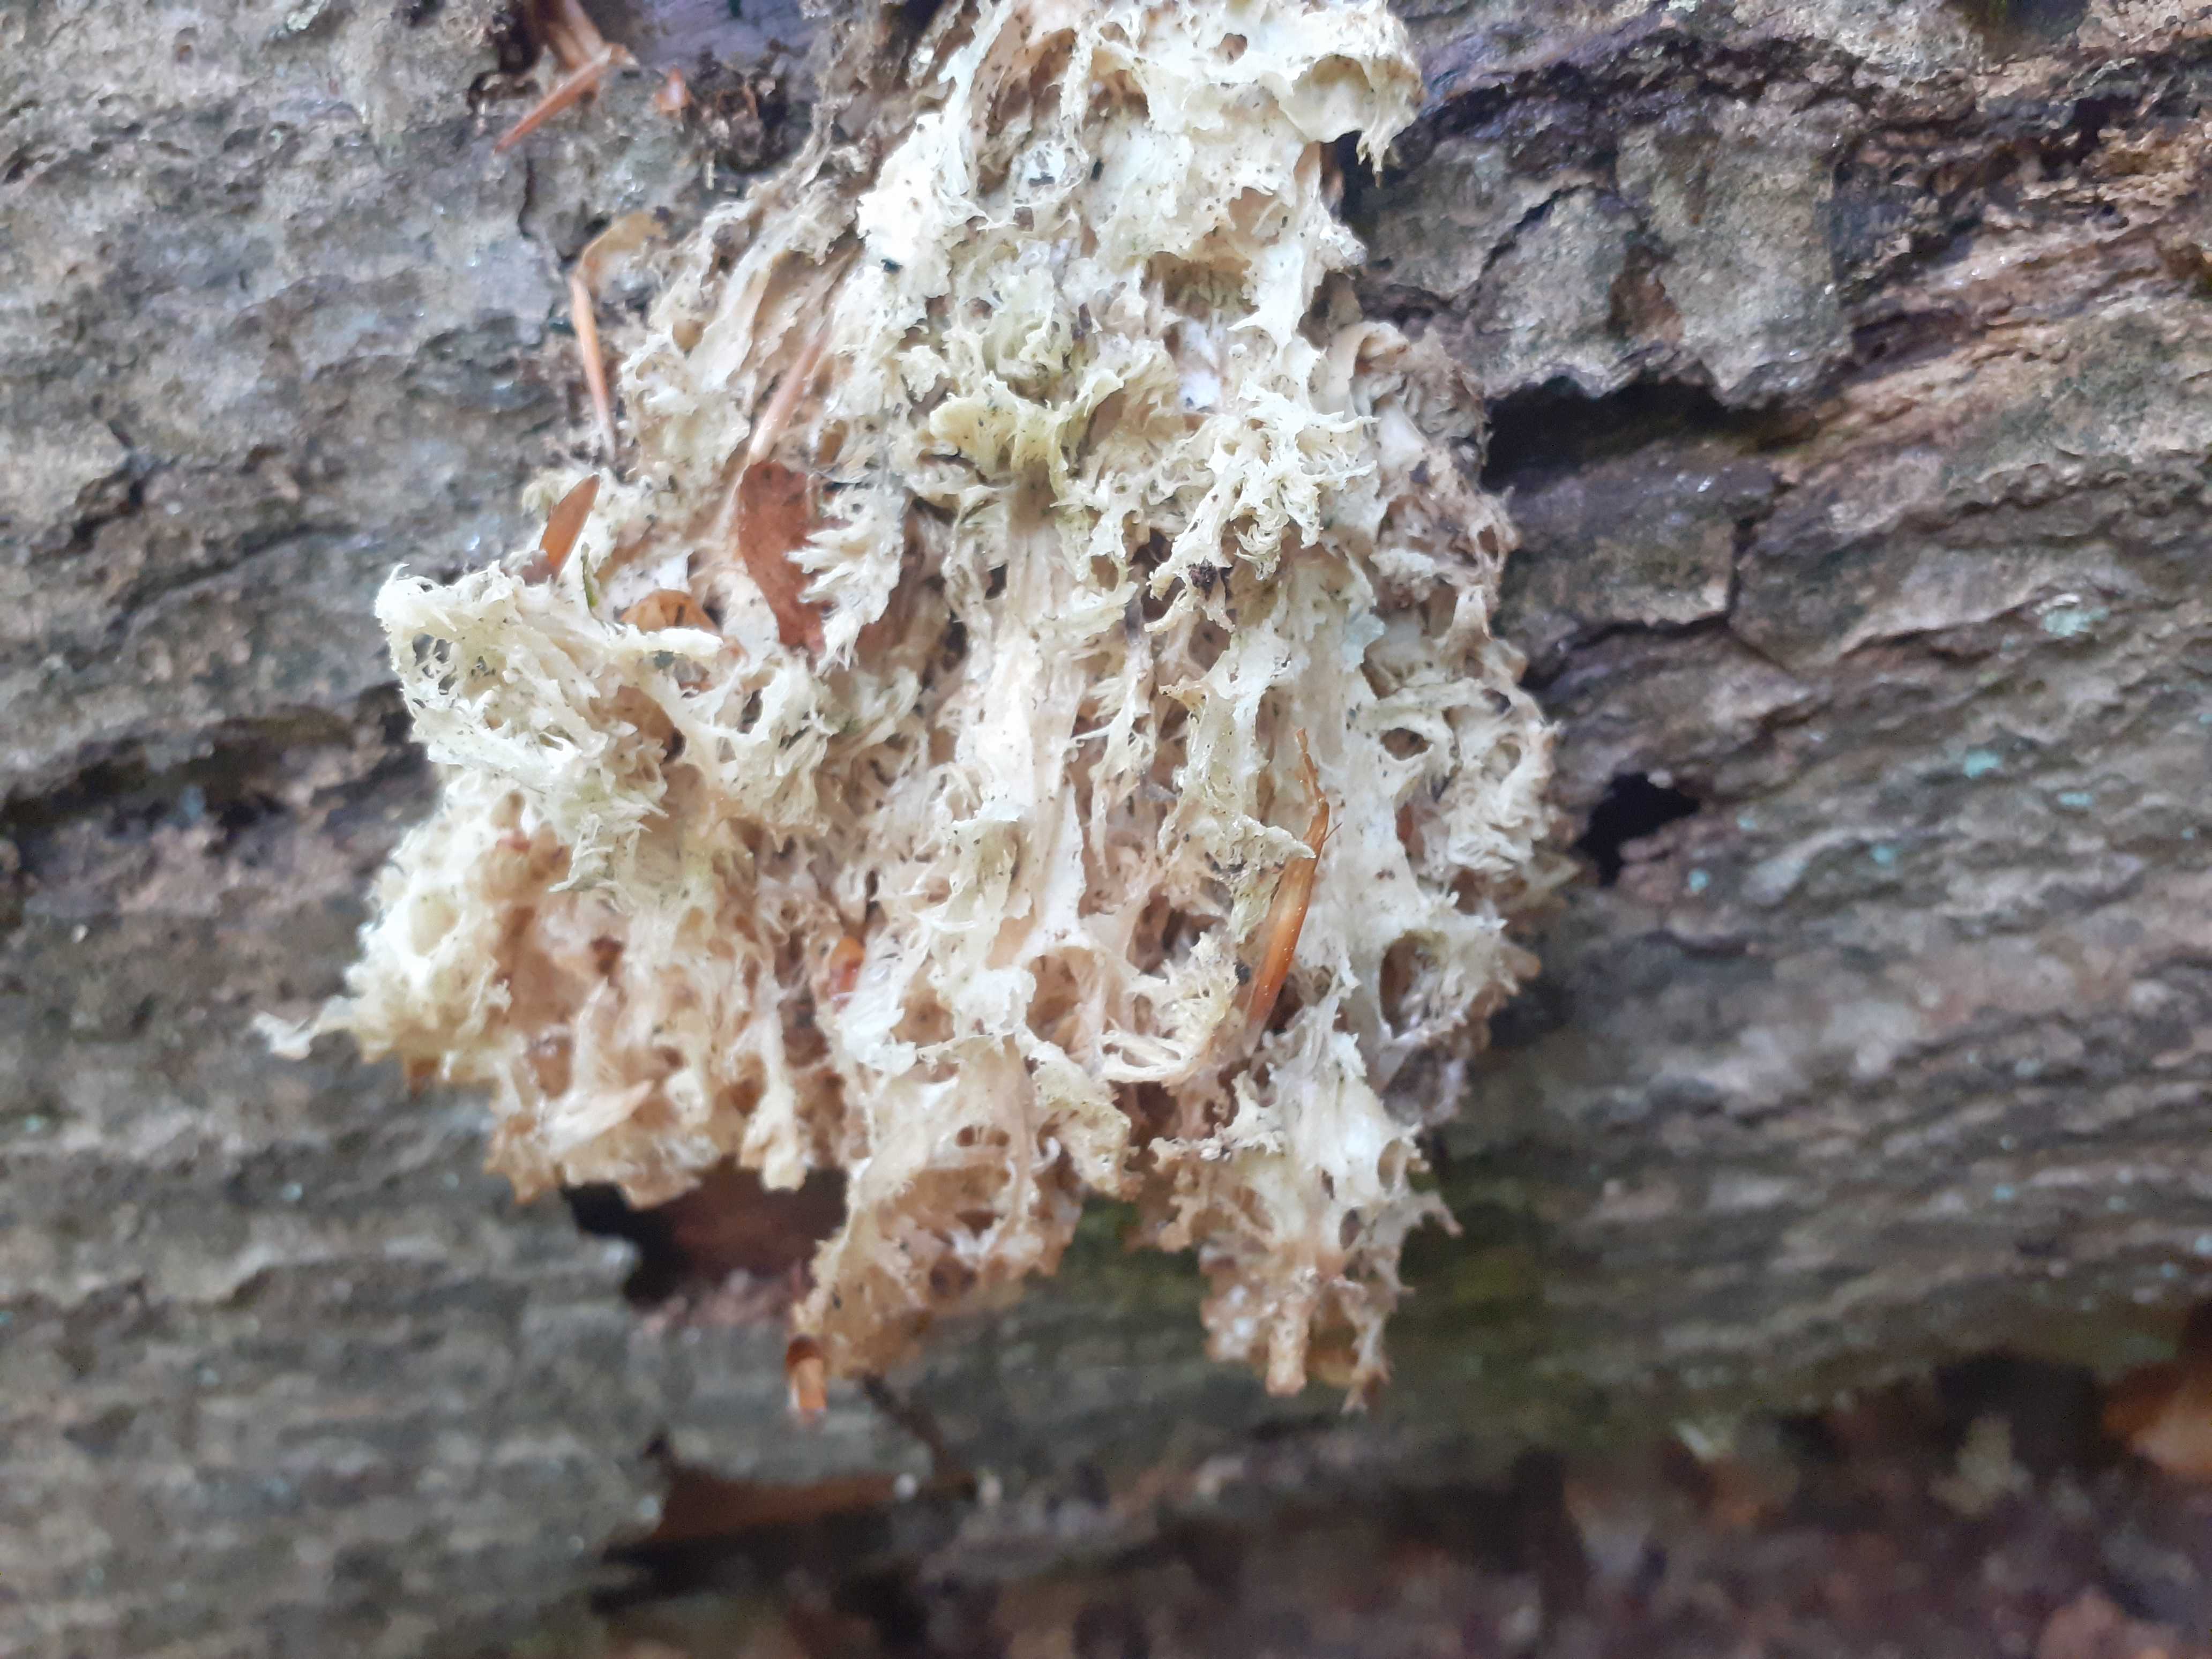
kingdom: Fungi
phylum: Basidiomycota
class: Agaricomycetes
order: Russulales
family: Hericiaceae
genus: Hericium
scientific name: Hericium coralloides
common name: koralpigsvamp
